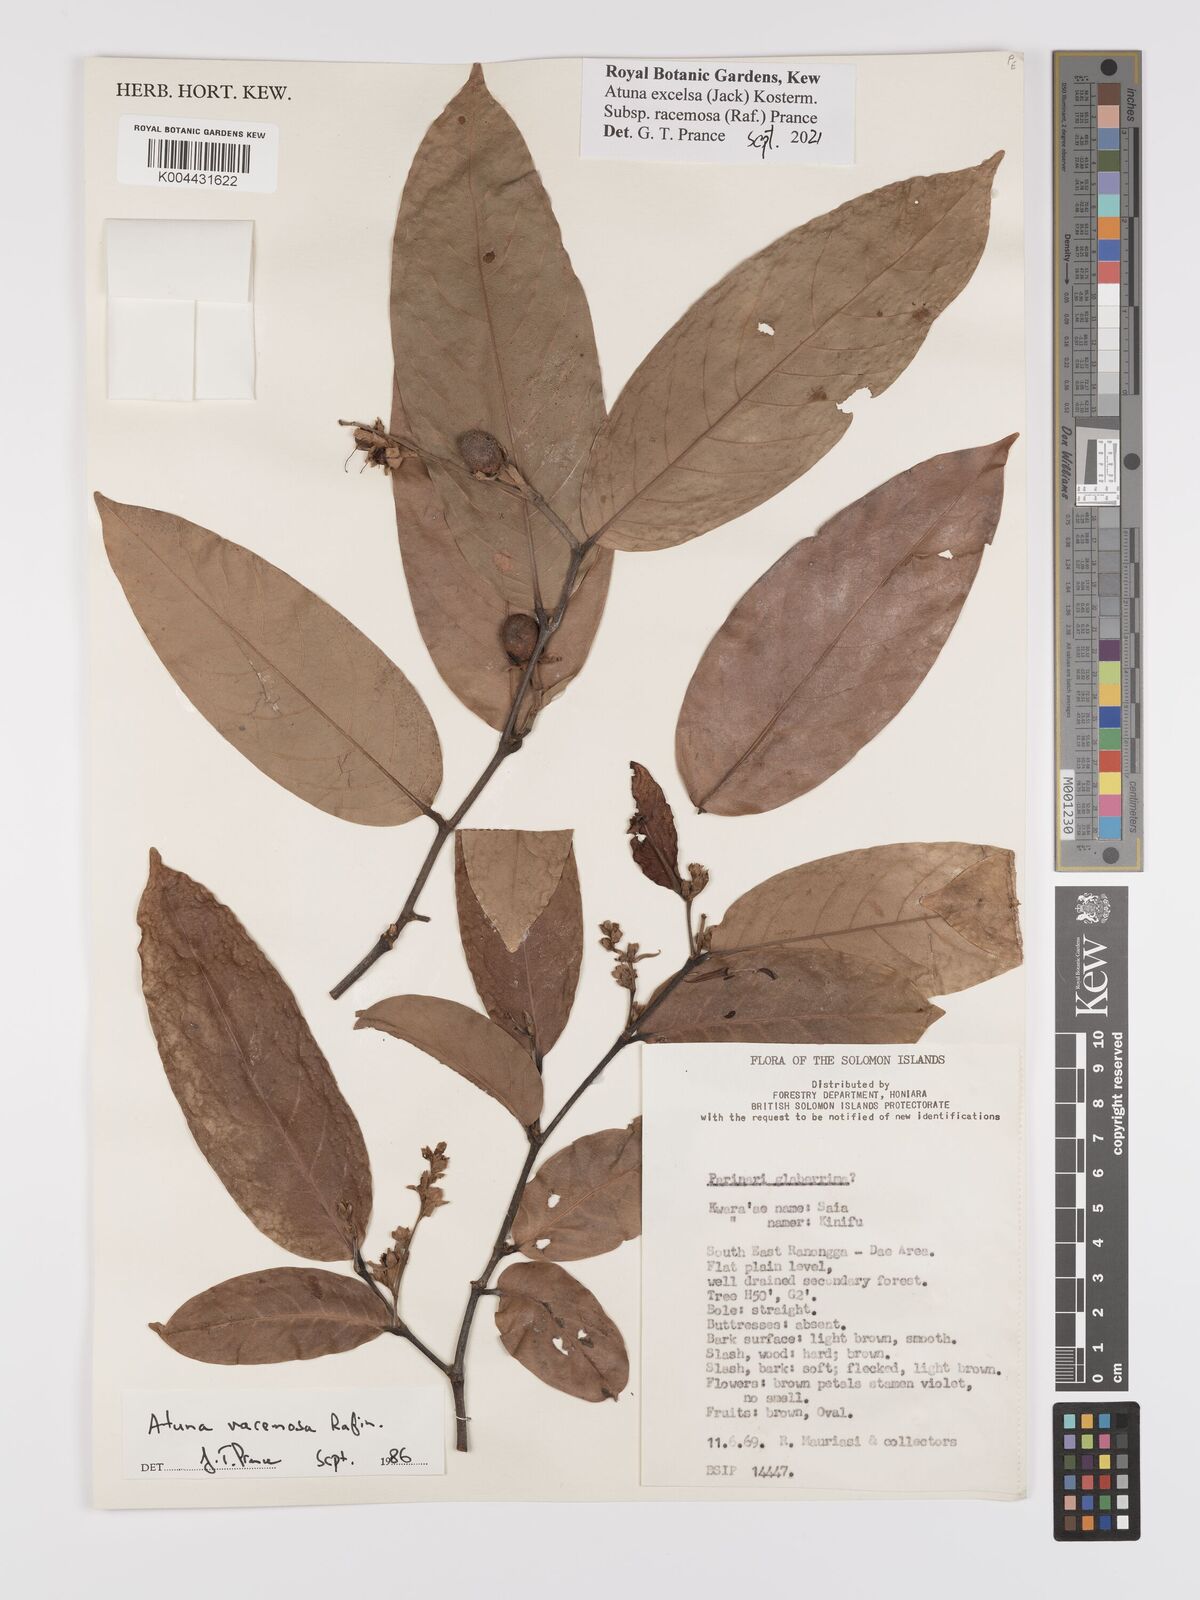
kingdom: Plantae
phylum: Tracheophyta
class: Magnoliopsida
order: Malpighiales
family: Chrysobalanaceae
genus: Atuna
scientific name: Atuna excelsa
